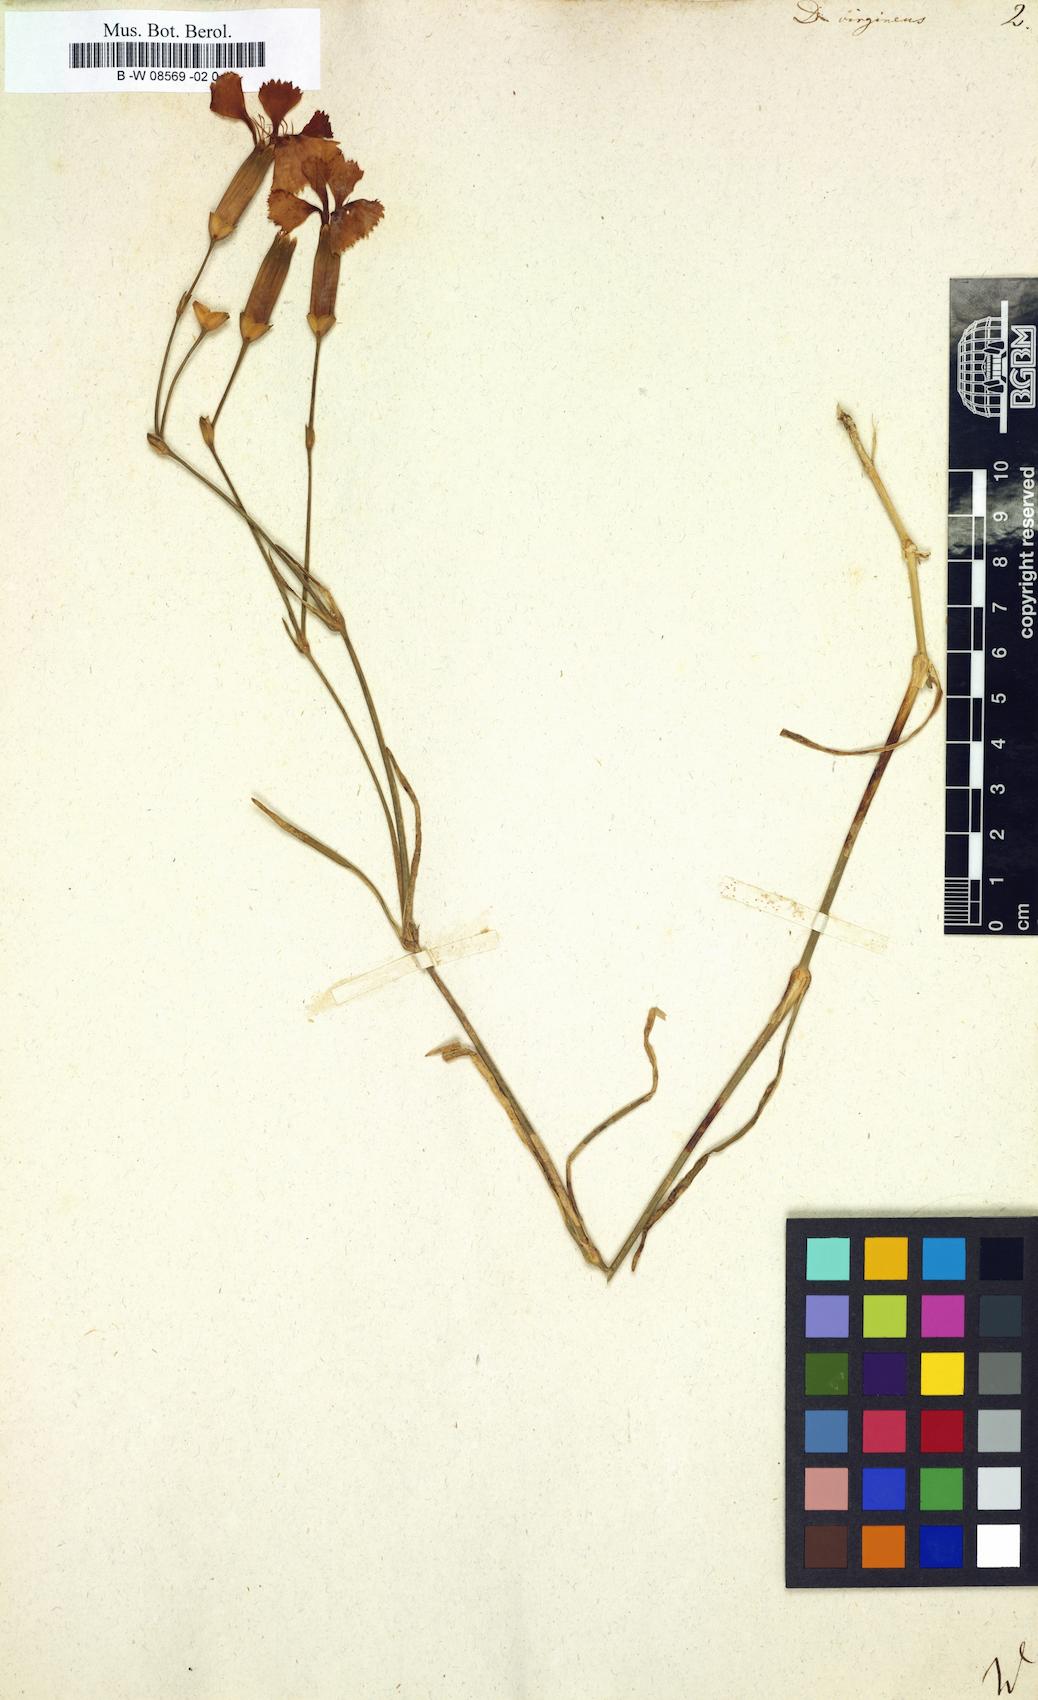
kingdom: Plantae
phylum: Tracheophyta
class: Magnoliopsida
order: Caryophyllales
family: Caryophyllaceae
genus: Dianthus
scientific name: Dianthus virgineus
